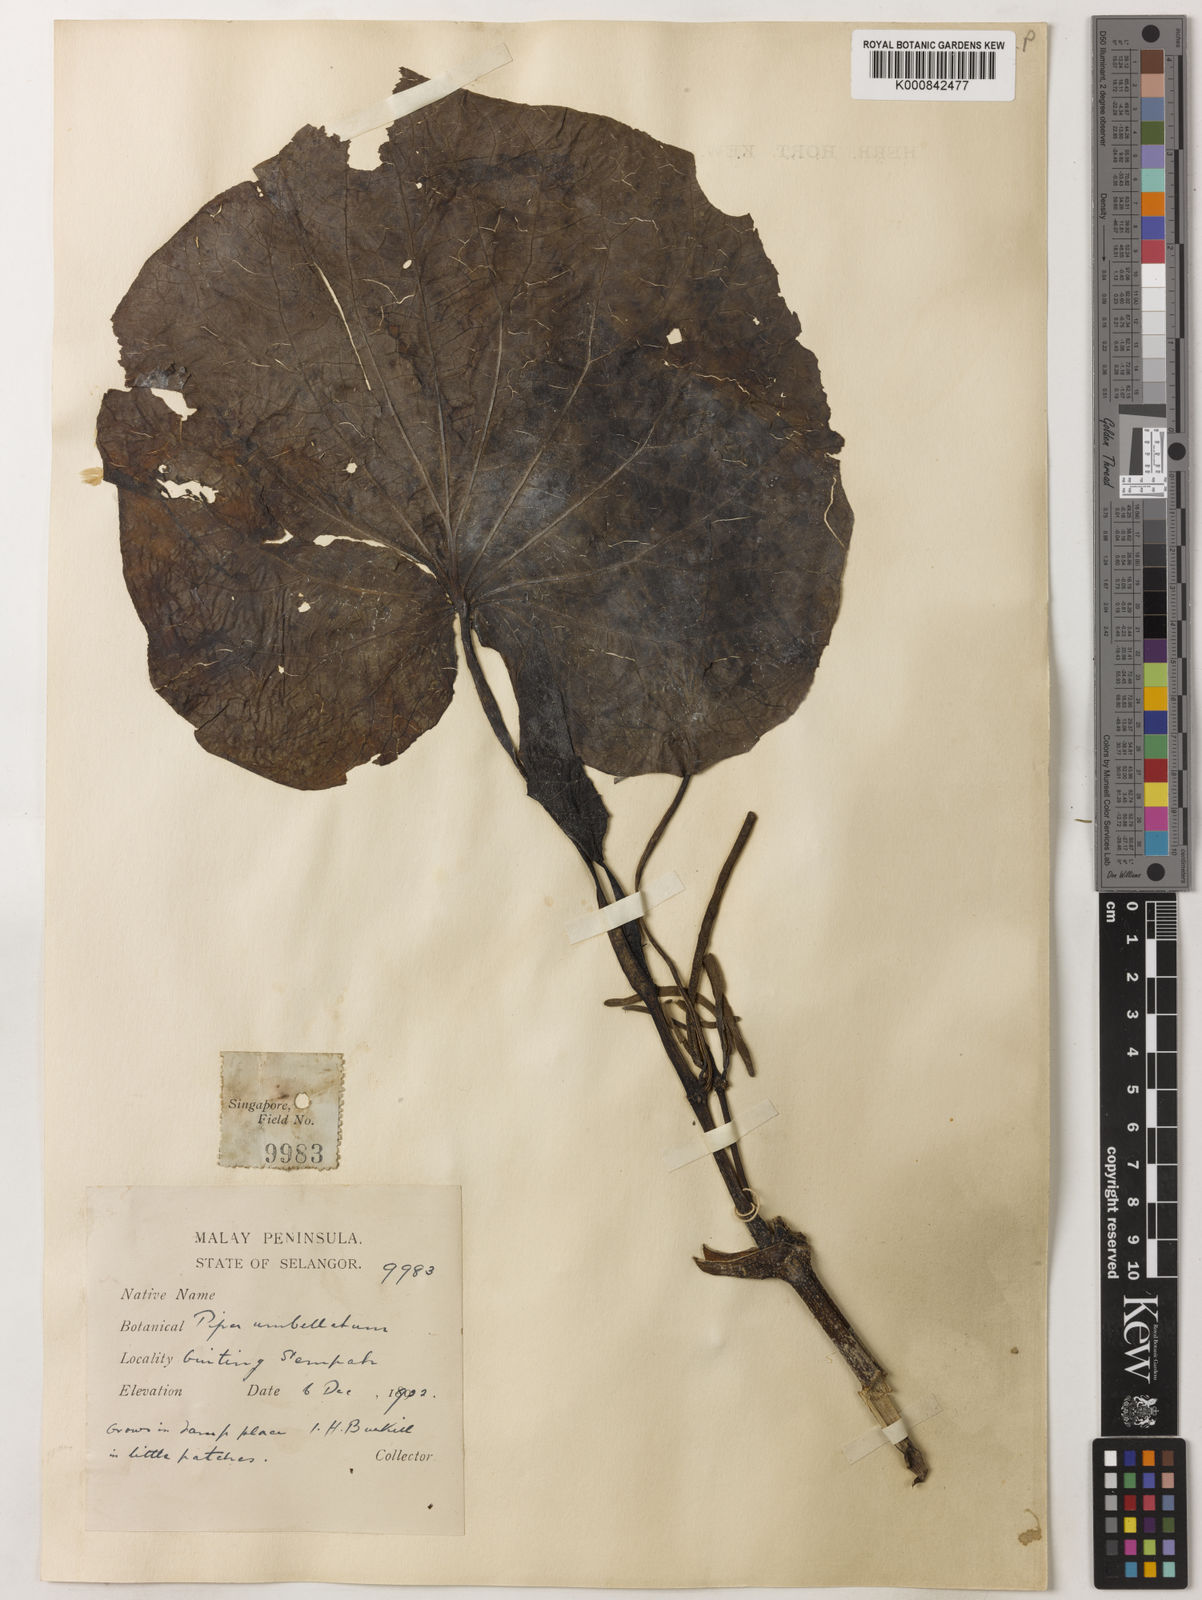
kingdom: Plantae
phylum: Tracheophyta
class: Magnoliopsida
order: Piperales
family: Piperaceae
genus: Piper
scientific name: Piper umbellatum
